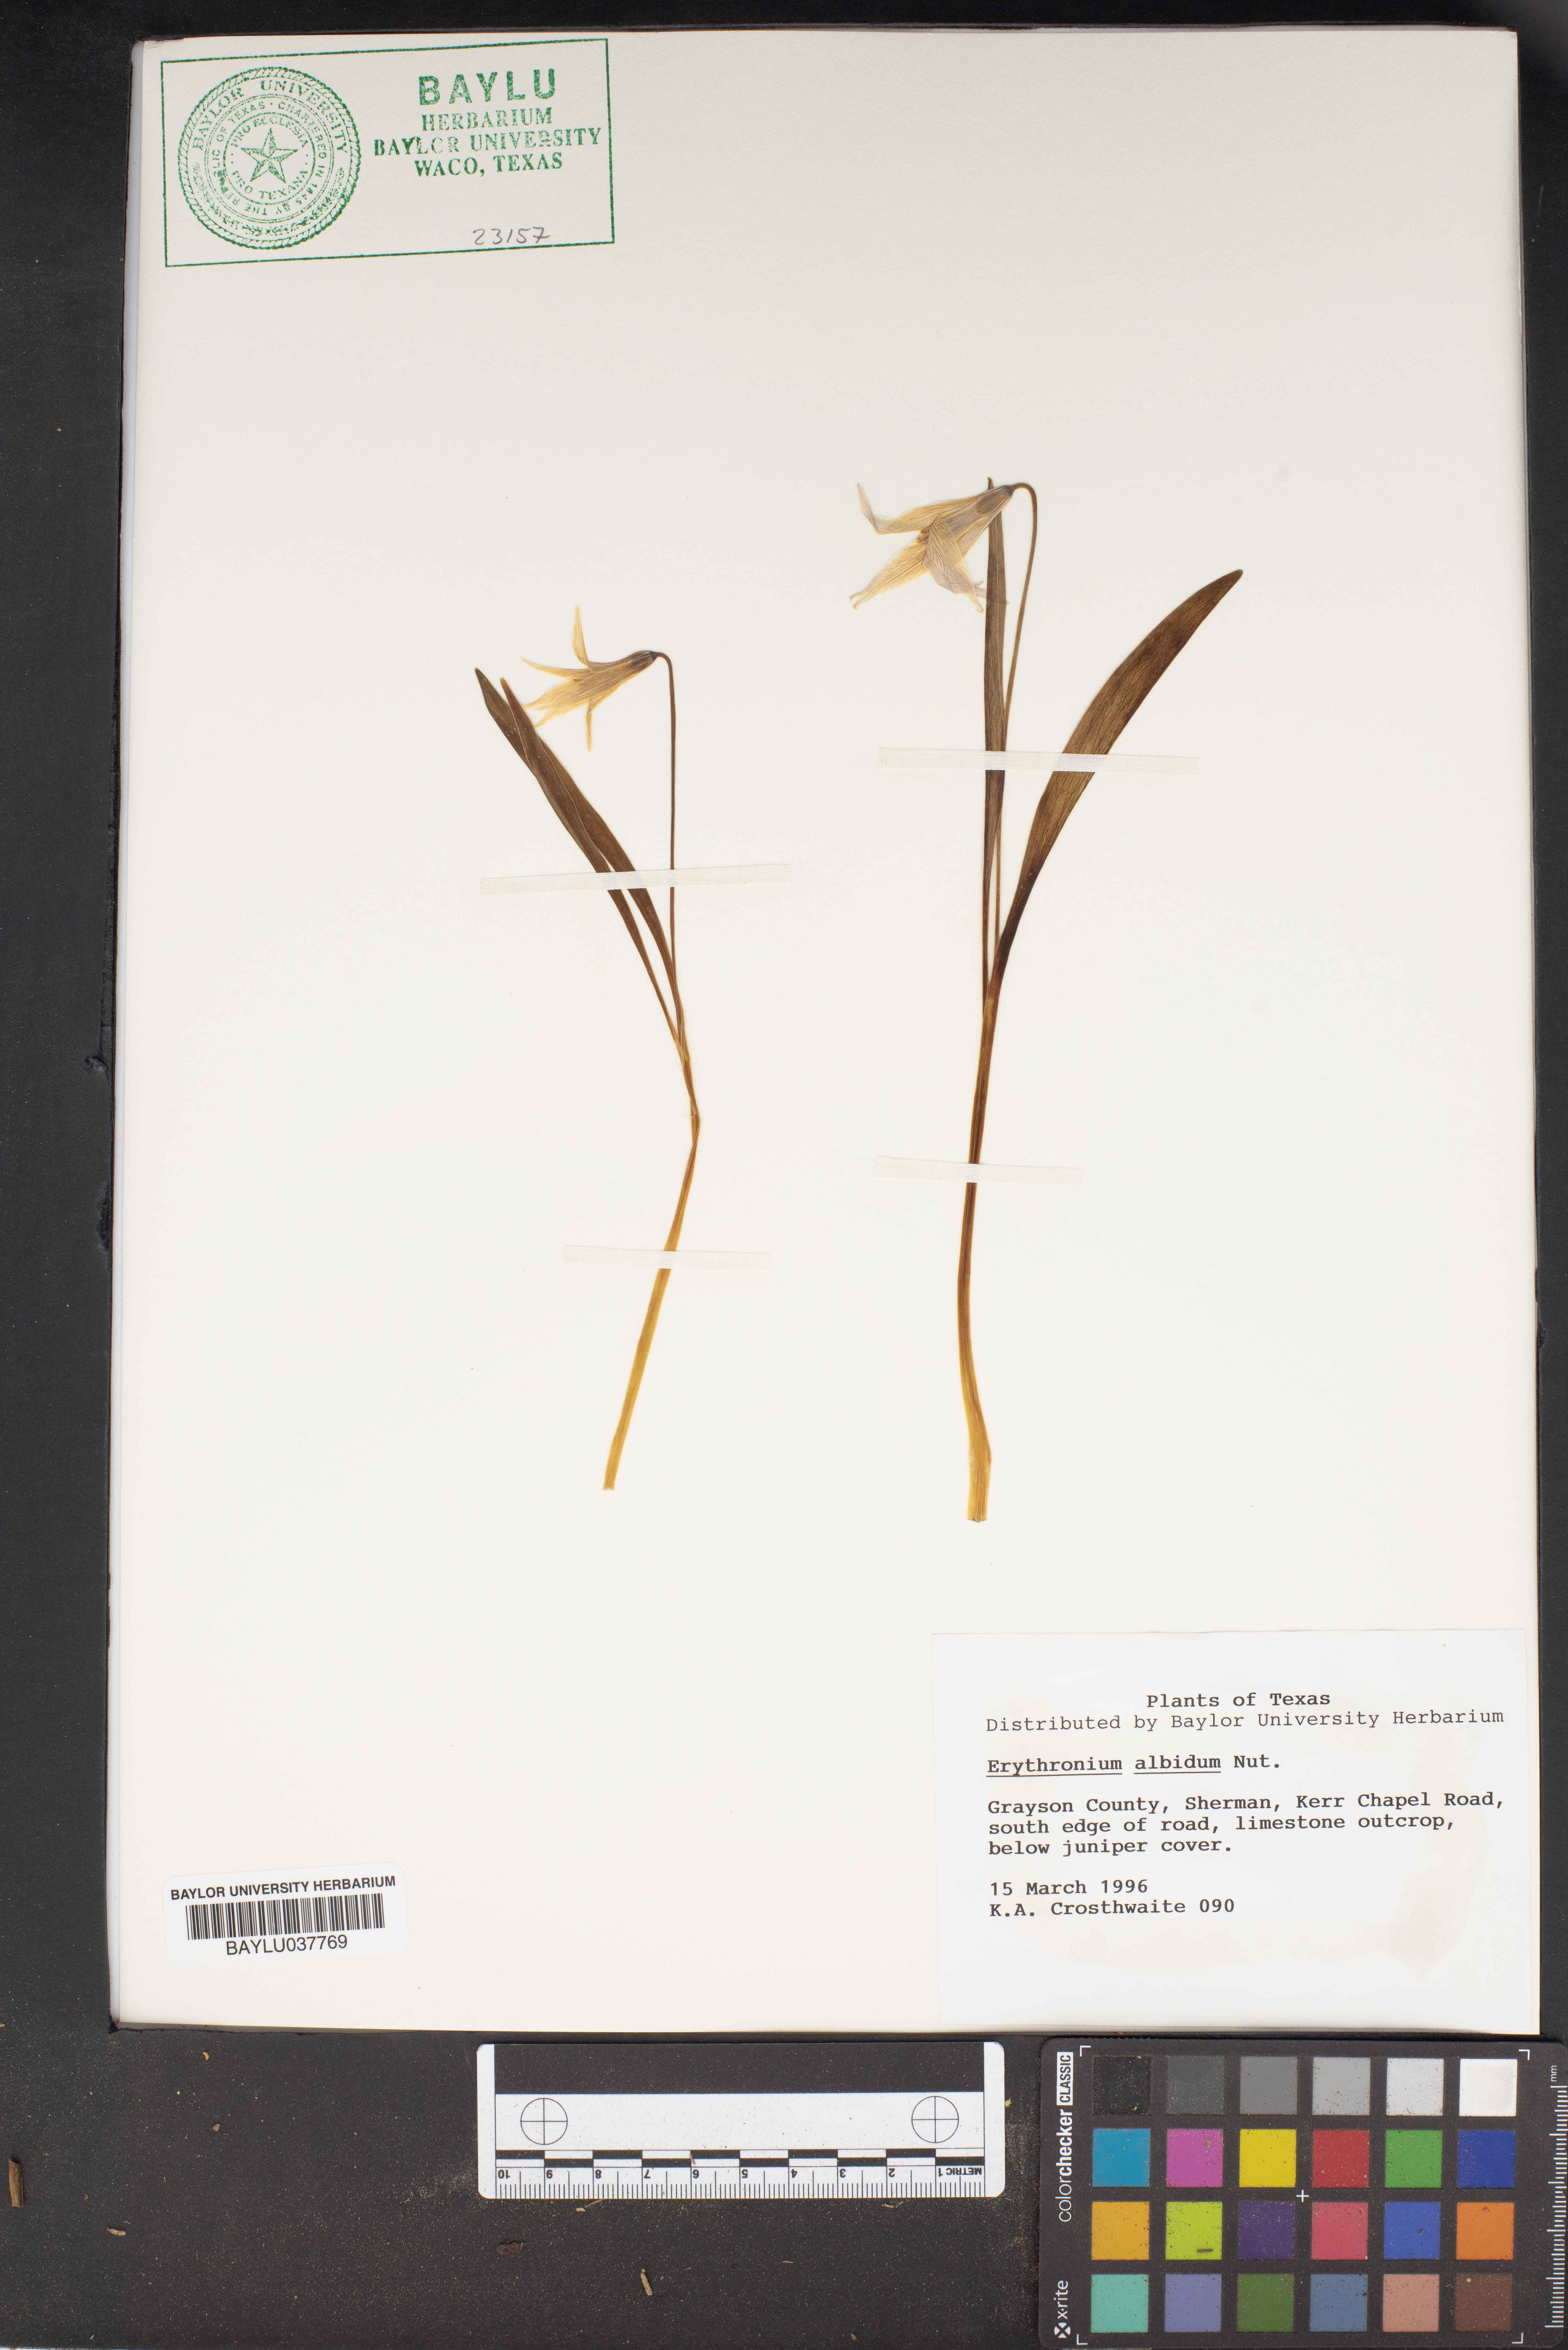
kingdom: Plantae
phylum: Tracheophyta
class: Liliopsida
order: Liliales
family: Liliaceae
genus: Erythronium
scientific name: Erythronium albidum
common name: White trout-lily
